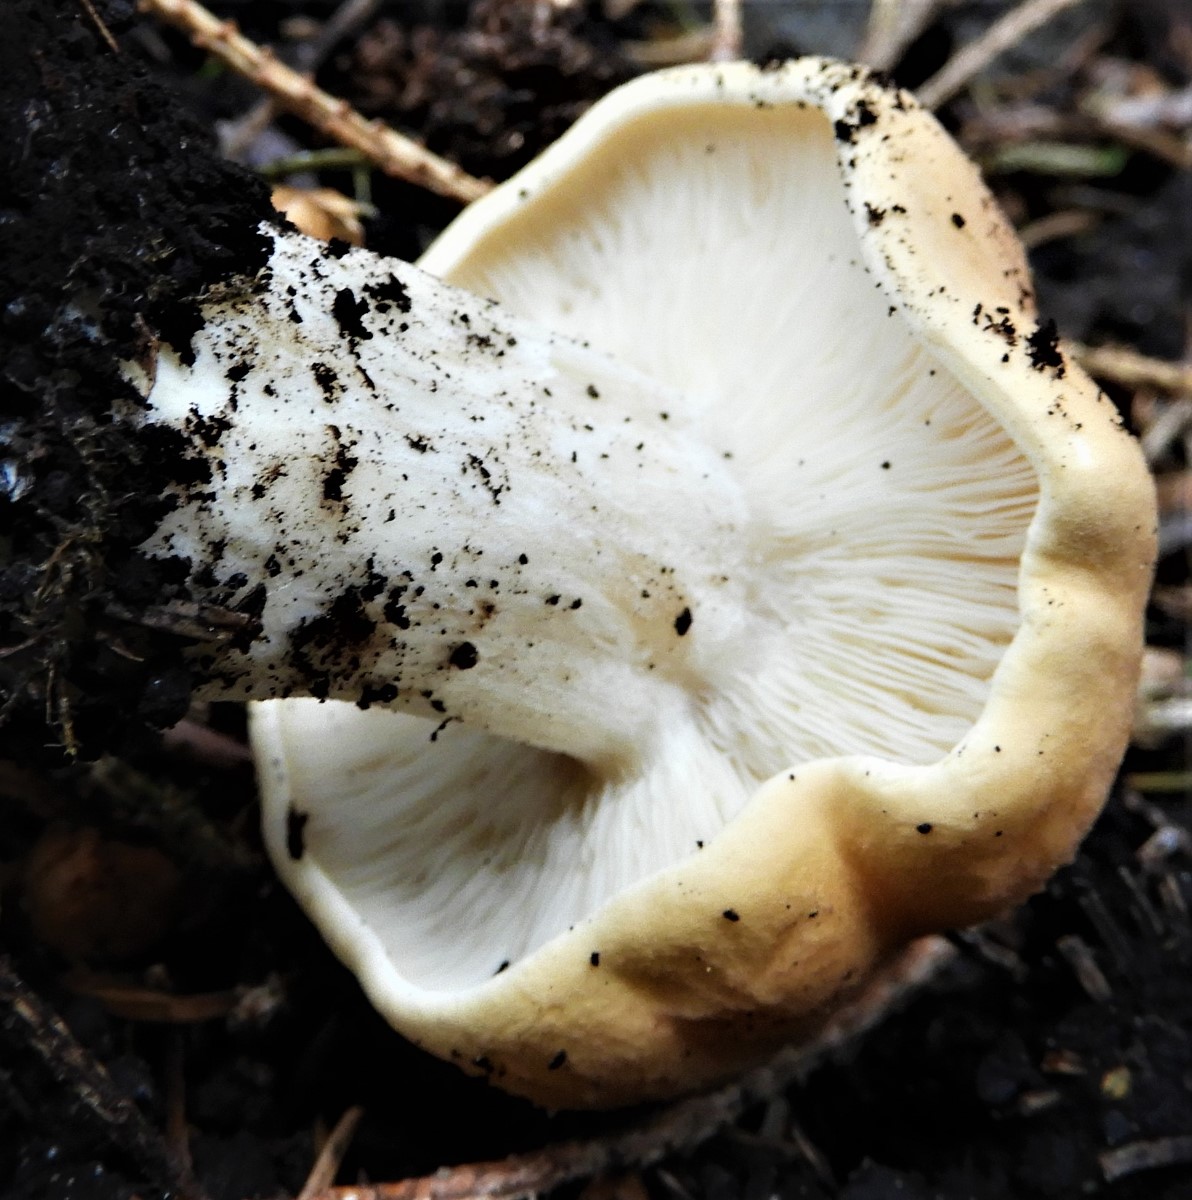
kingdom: Fungi
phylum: Basidiomycota
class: Agaricomycetes
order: Agaricales
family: Lyophyllaceae
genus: Calocybe
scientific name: Calocybe gambosa
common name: vårmusseron
